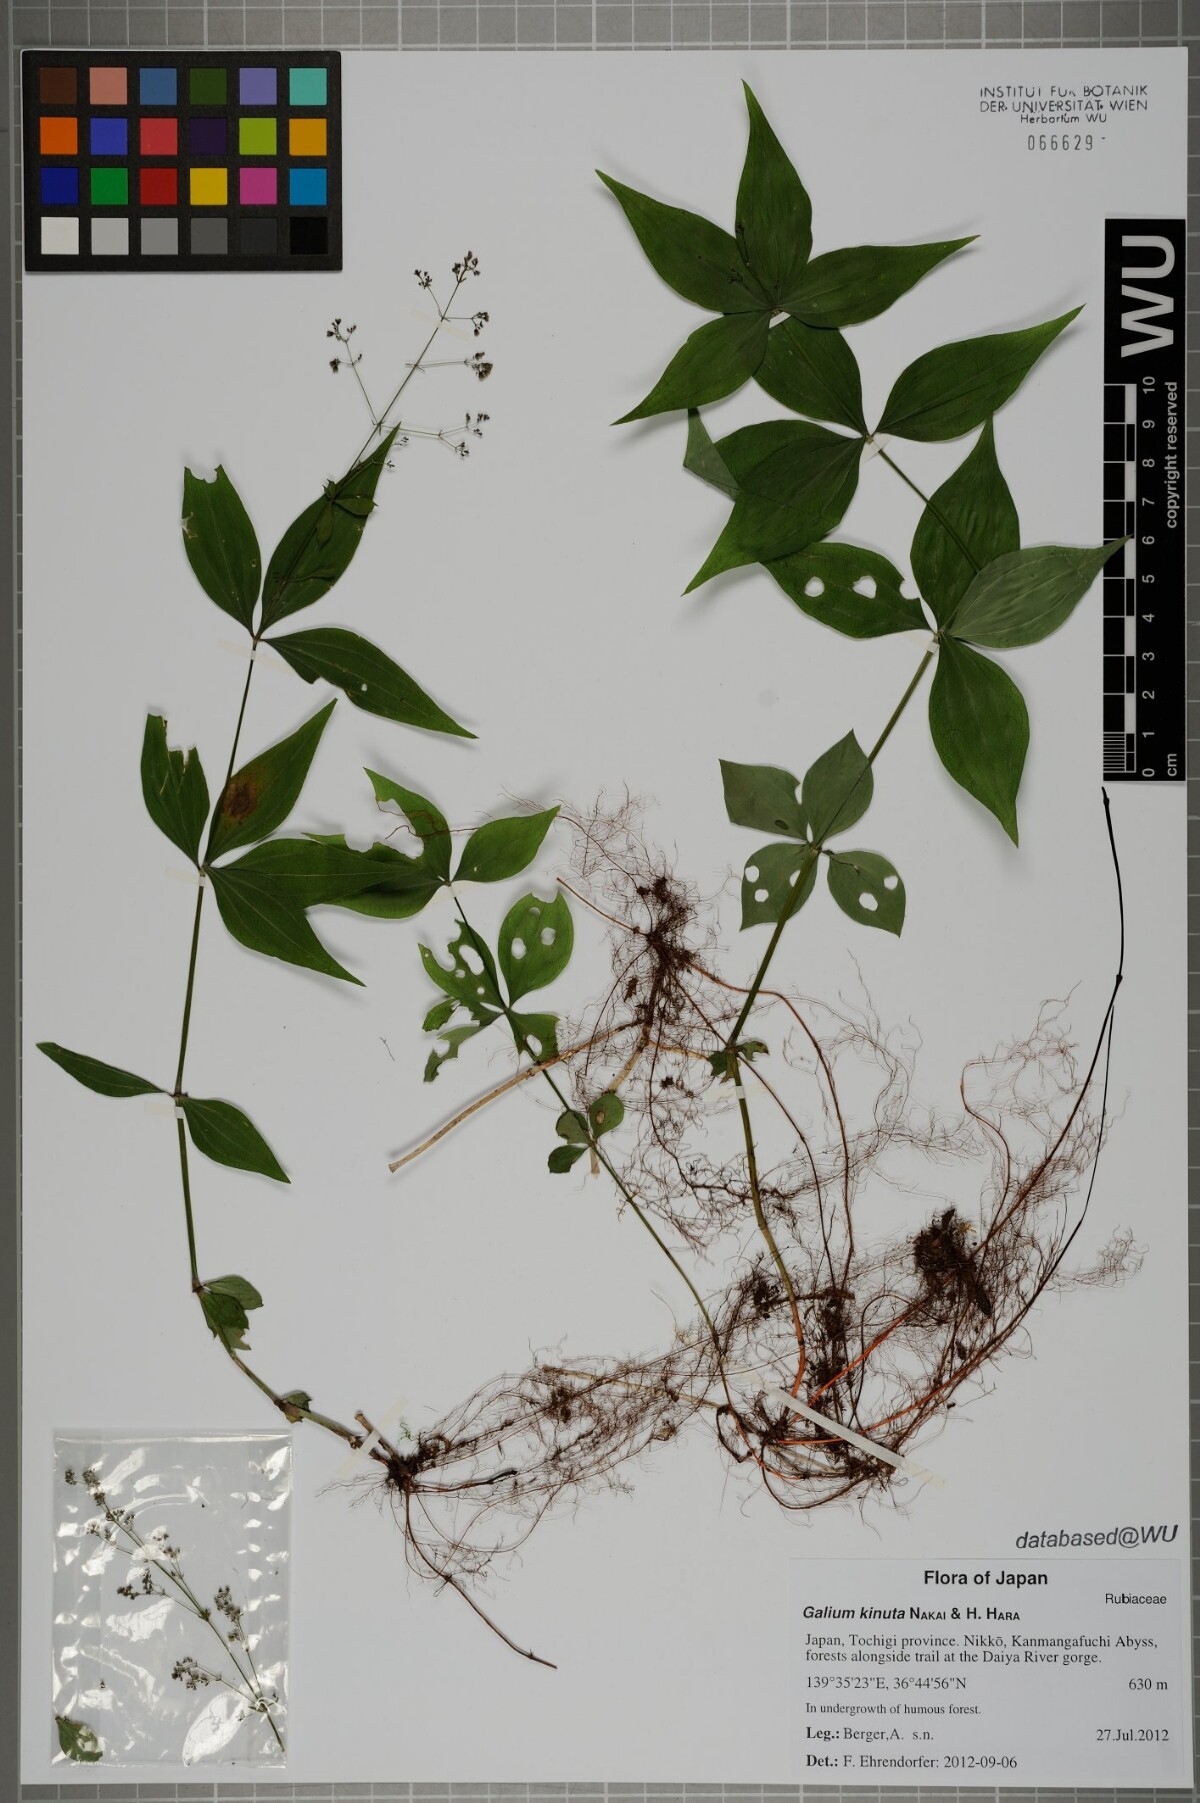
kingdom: Plantae
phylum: Tracheophyta
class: Magnoliopsida
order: Gentianales
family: Rubiaceae
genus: Galium
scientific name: Galium kinuta
